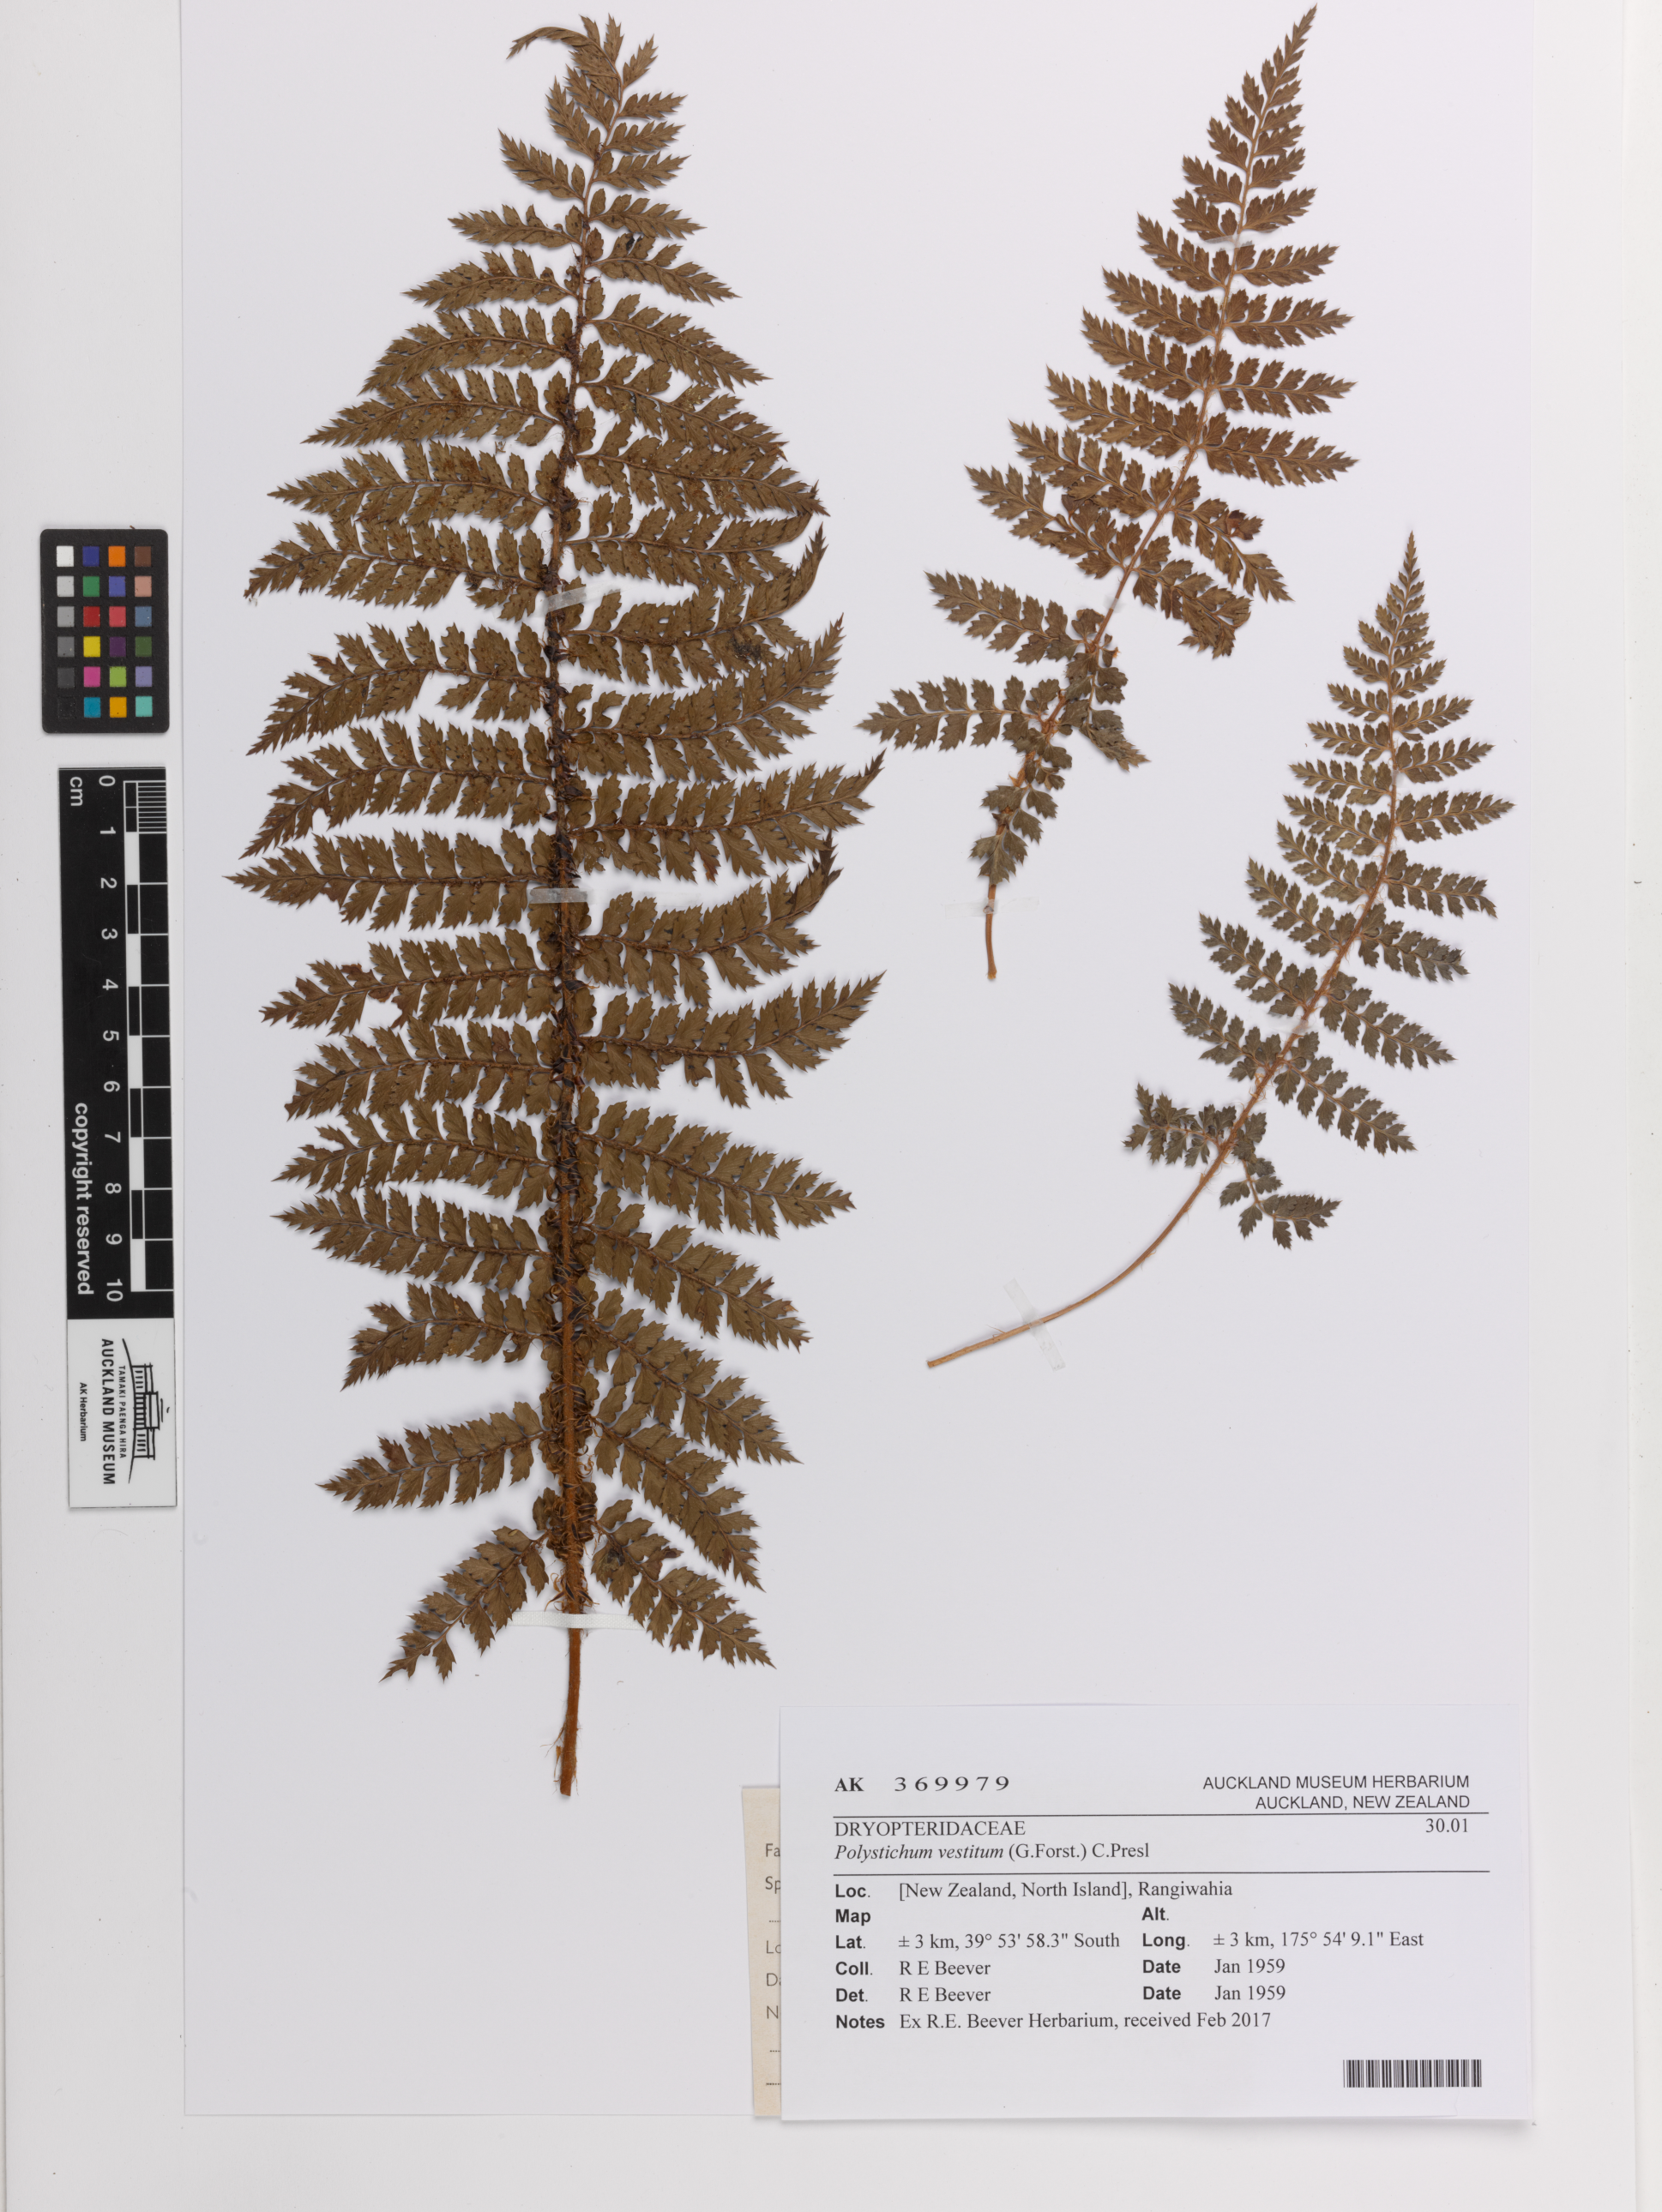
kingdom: Plantae
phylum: Tracheophyta
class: Polypodiopsida
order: Polypodiales
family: Dryopteridaceae
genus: Polystichum
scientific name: Polystichum vestitum
